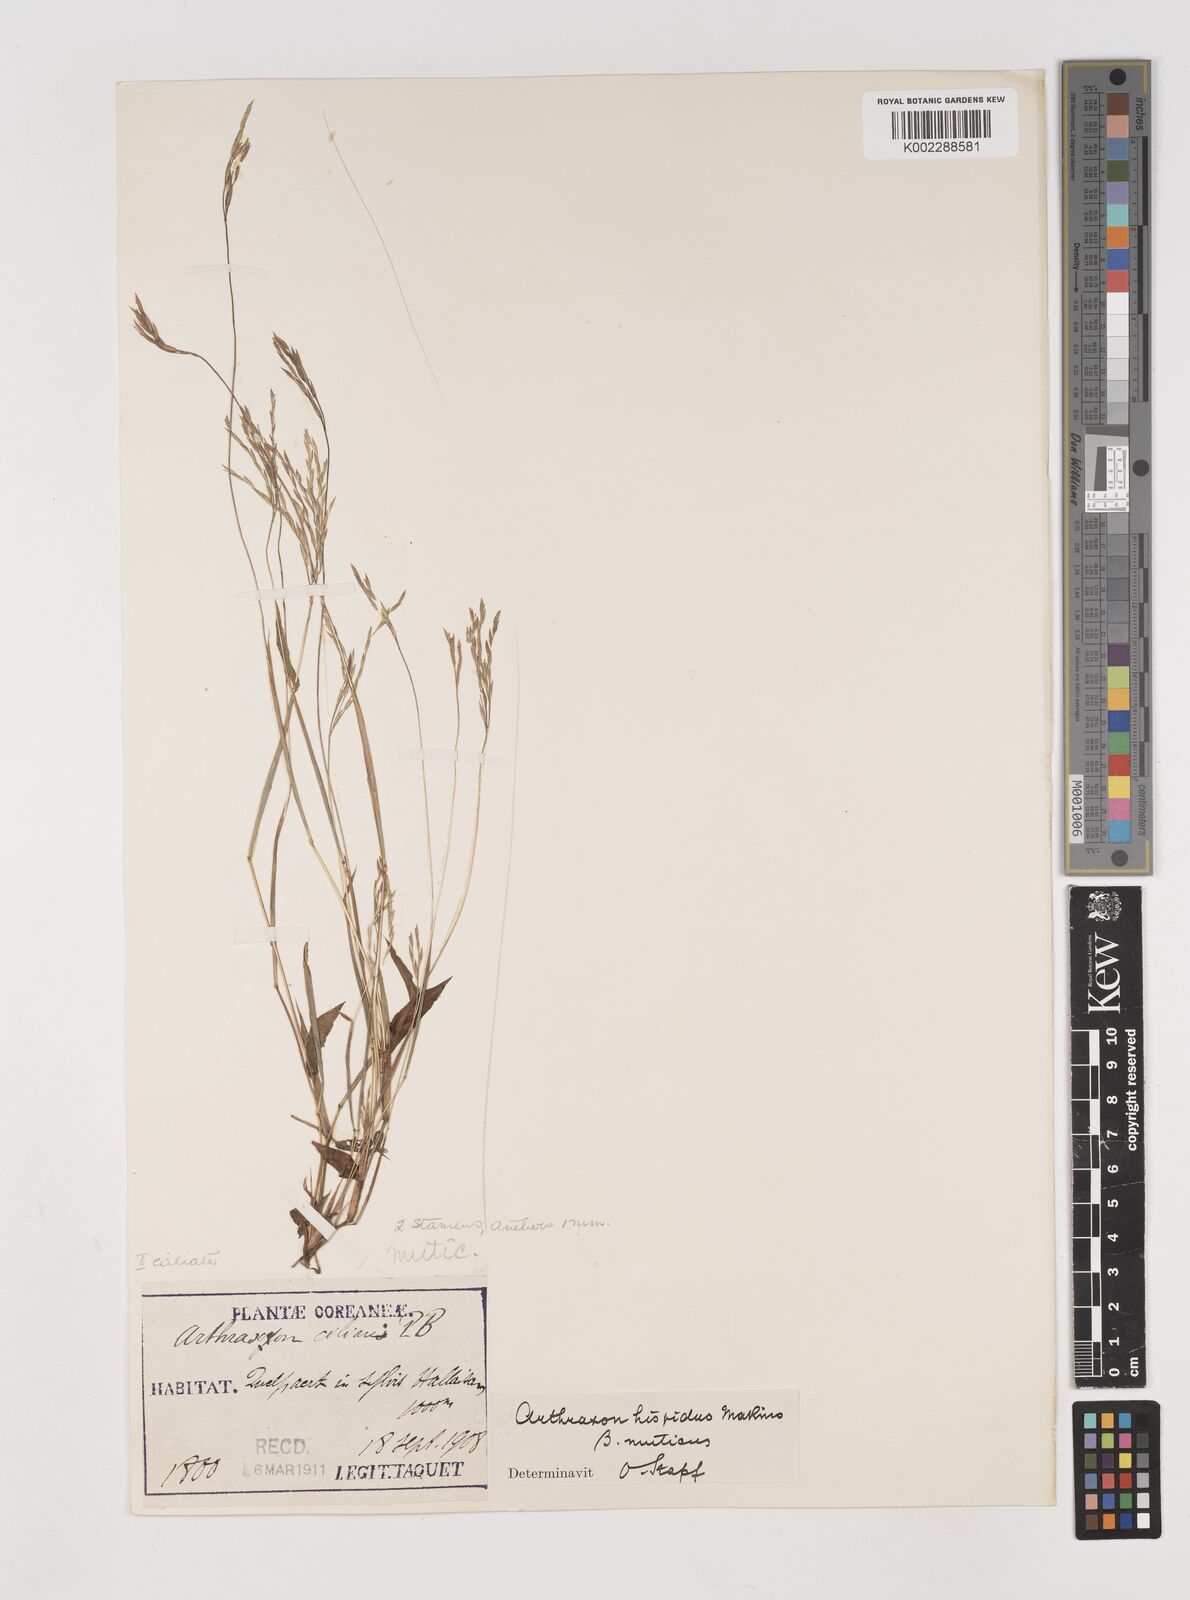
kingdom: Plantae
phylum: Tracheophyta
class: Liliopsida
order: Poales
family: Poaceae
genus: Arthraxon
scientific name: Arthraxon hispidus
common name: Small carpgrass
